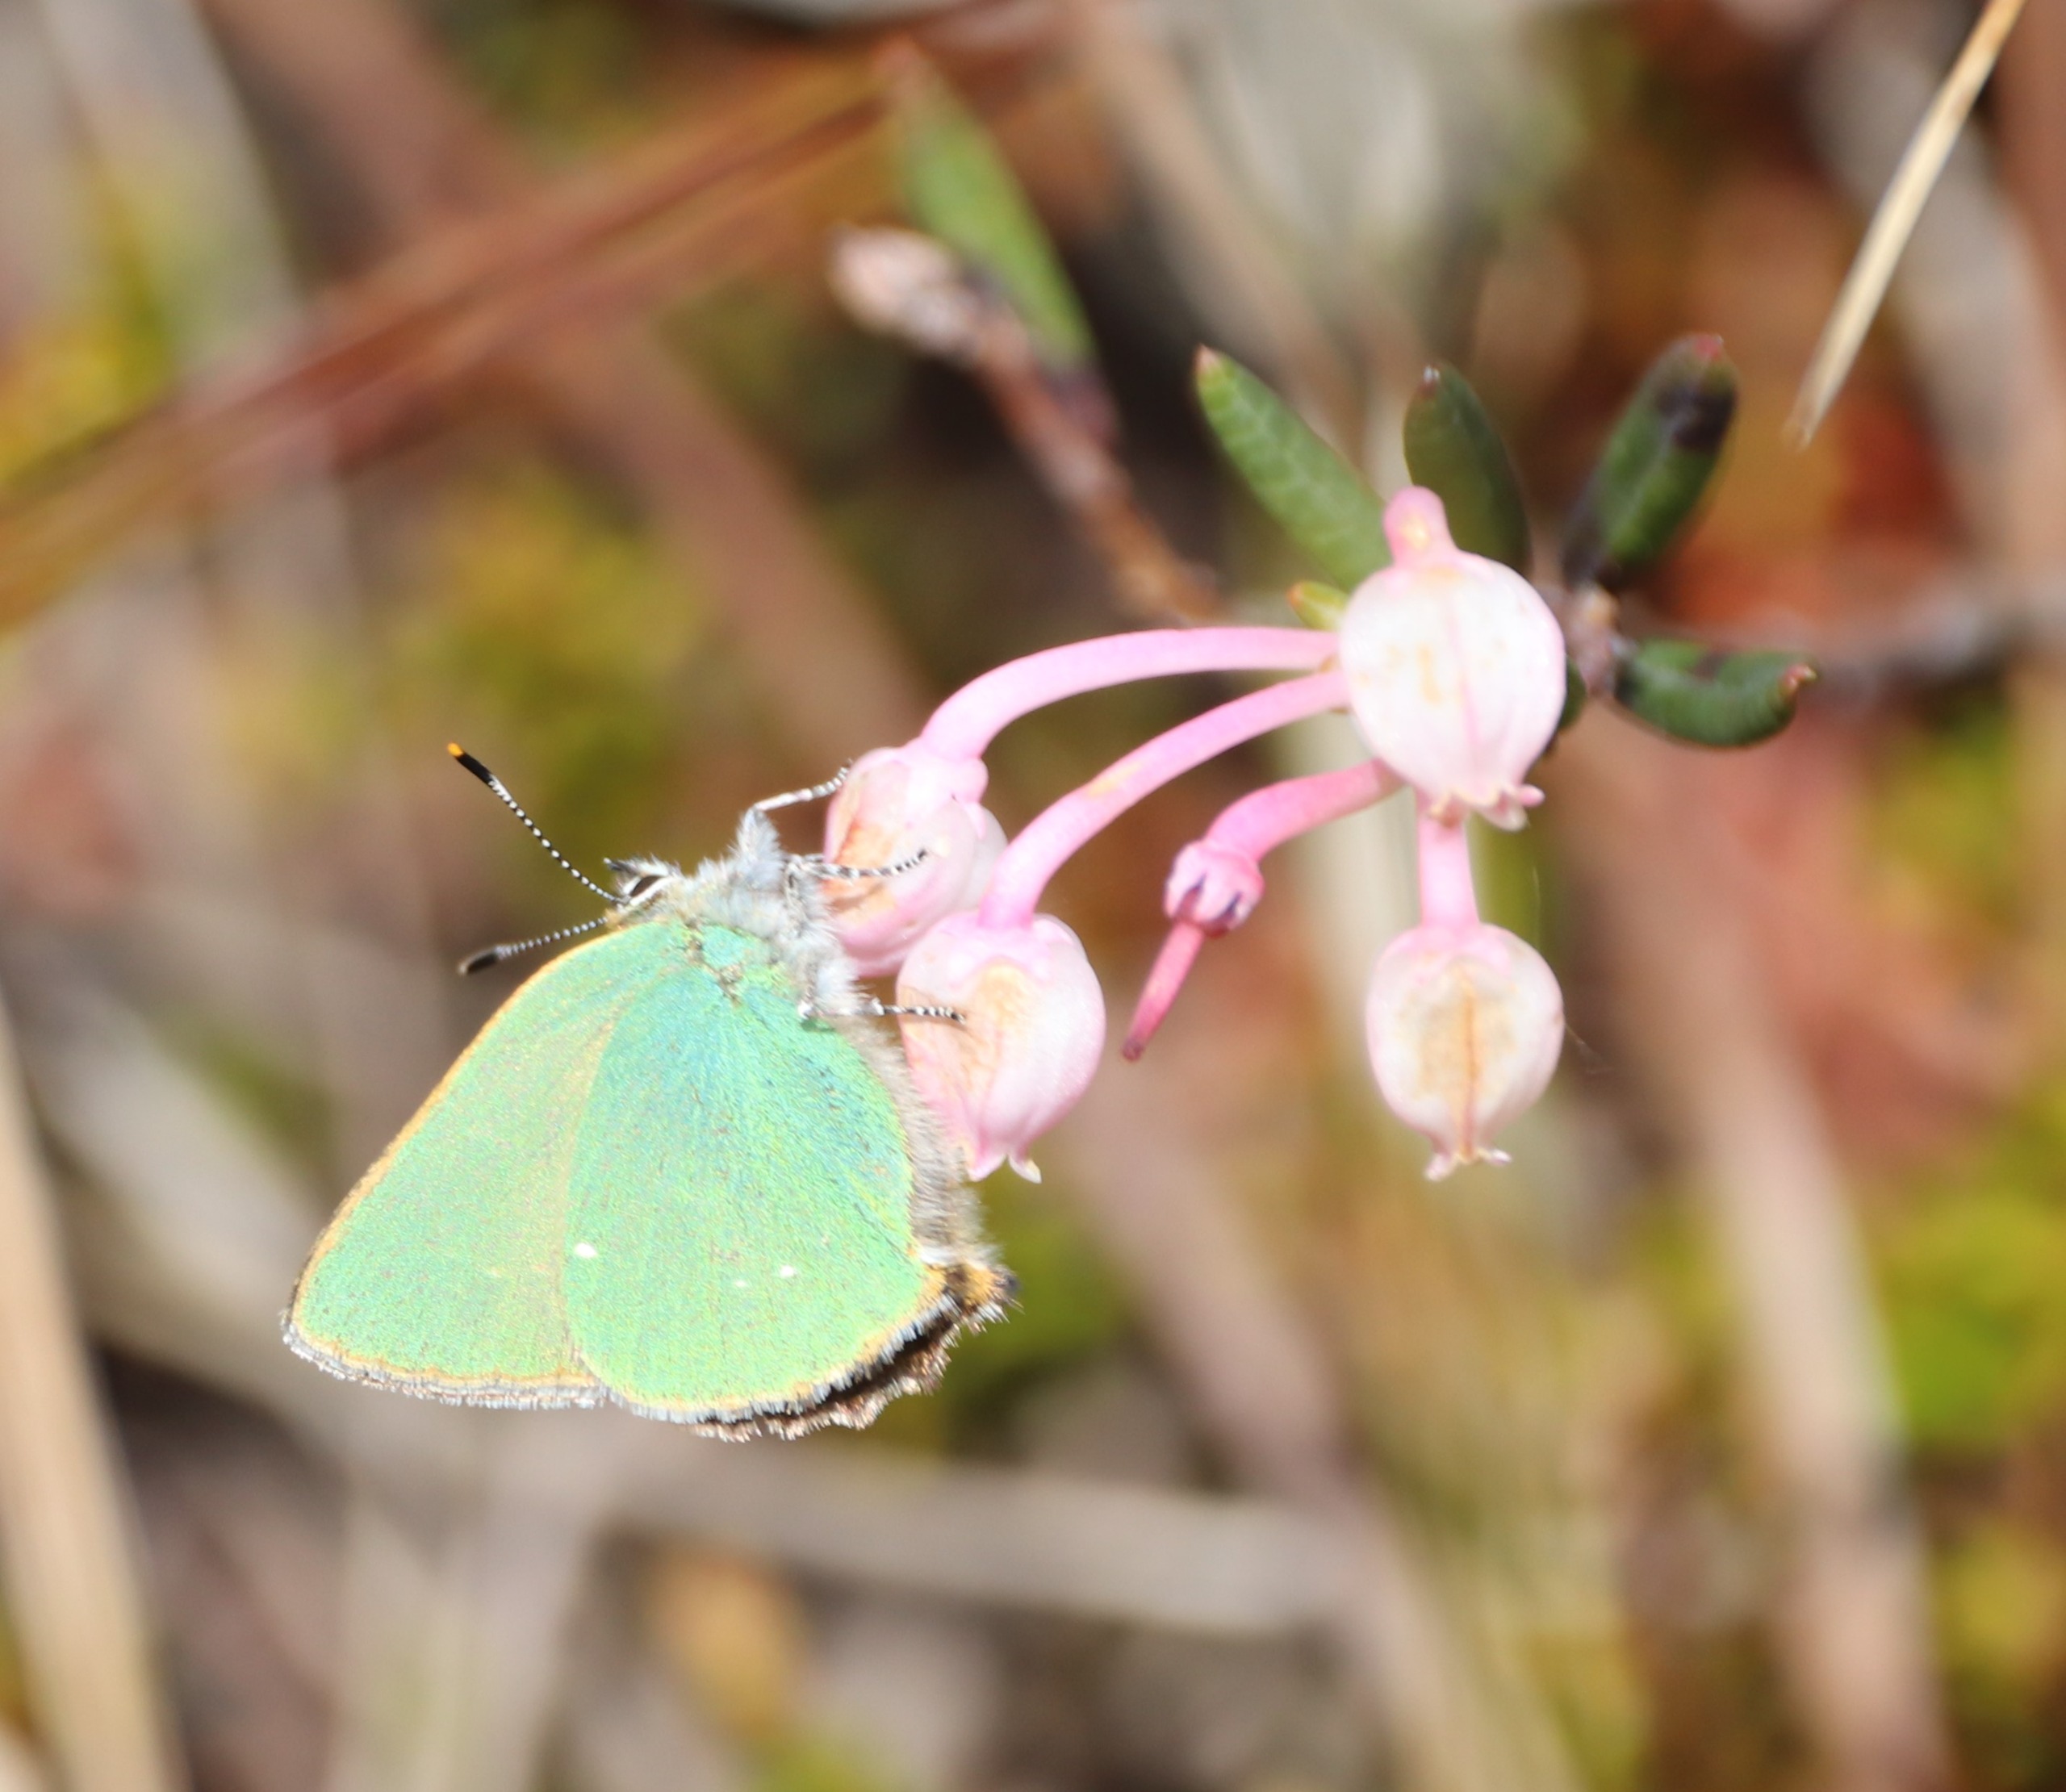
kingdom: Animalia
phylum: Arthropoda
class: Insecta
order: Lepidoptera
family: Lycaenidae
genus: Callophrys
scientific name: Callophrys rubi
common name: Grøn busksommerfugl
